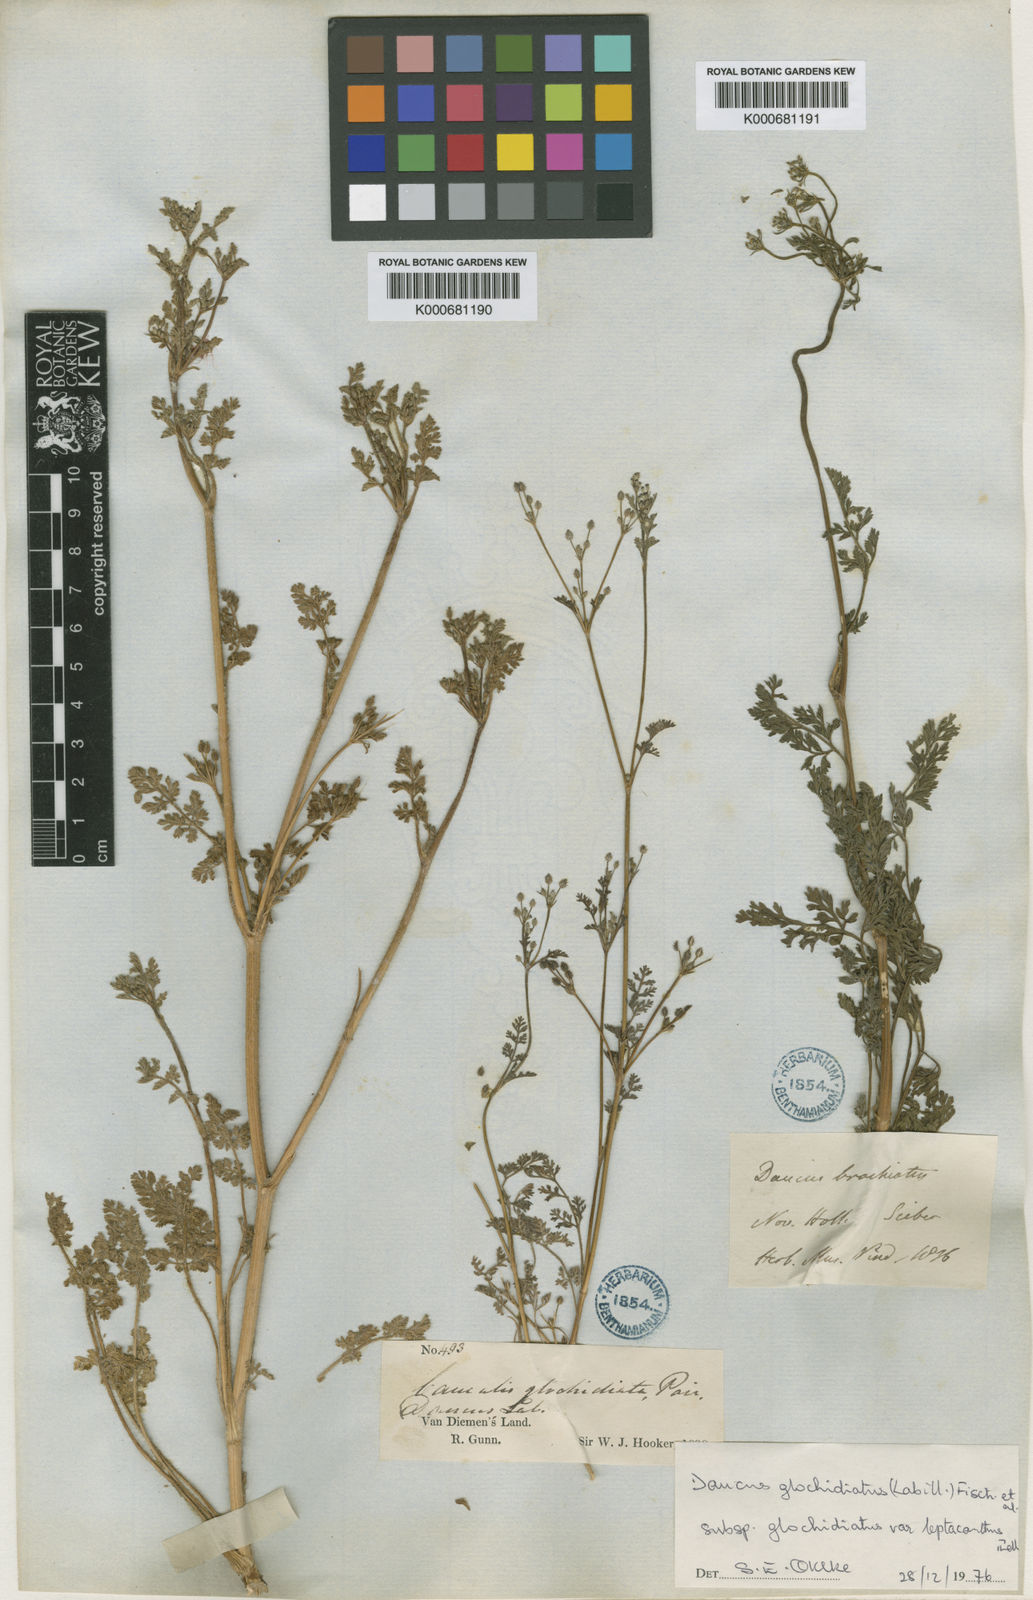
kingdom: Plantae
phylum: Tracheophyta
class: Magnoliopsida
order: Apiales
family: Apiaceae
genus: Daucus
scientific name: Daucus glochidiatus
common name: Australian carrot
